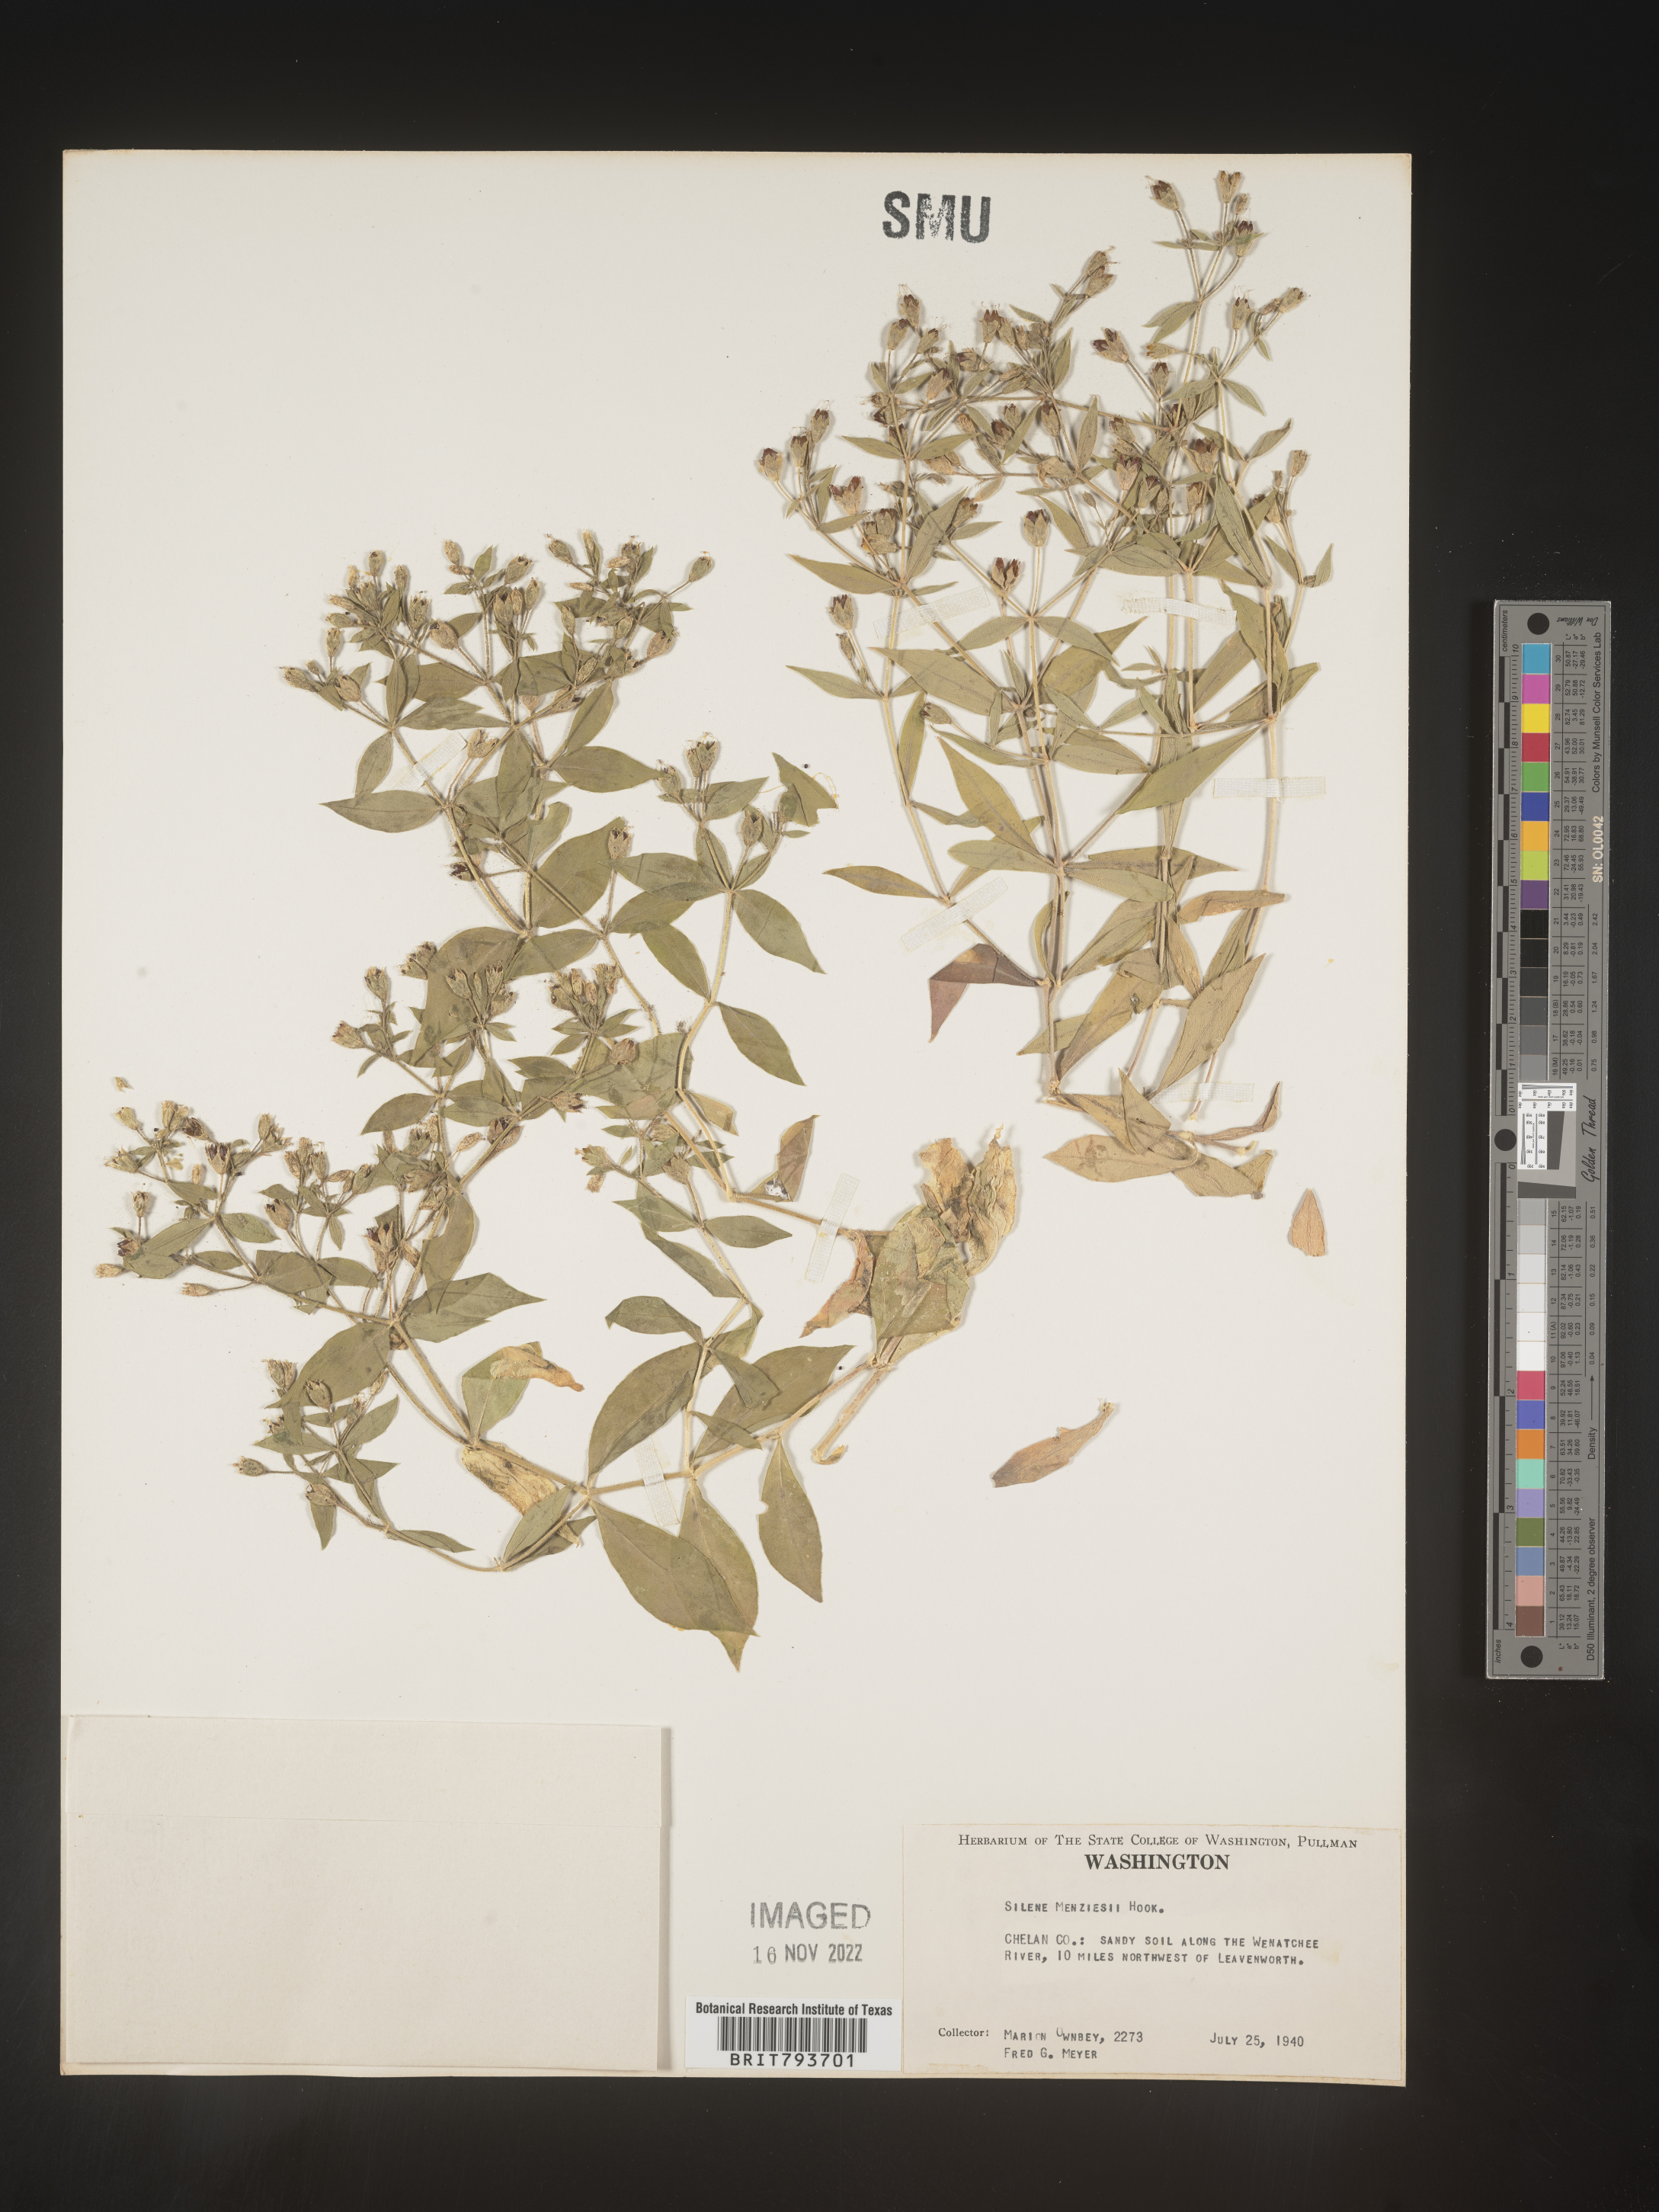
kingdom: Plantae
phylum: Tracheophyta
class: Magnoliopsida
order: Caryophyllales
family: Caryophyllaceae
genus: Silene
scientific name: Silene menziesii
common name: Menzies's catchfly
